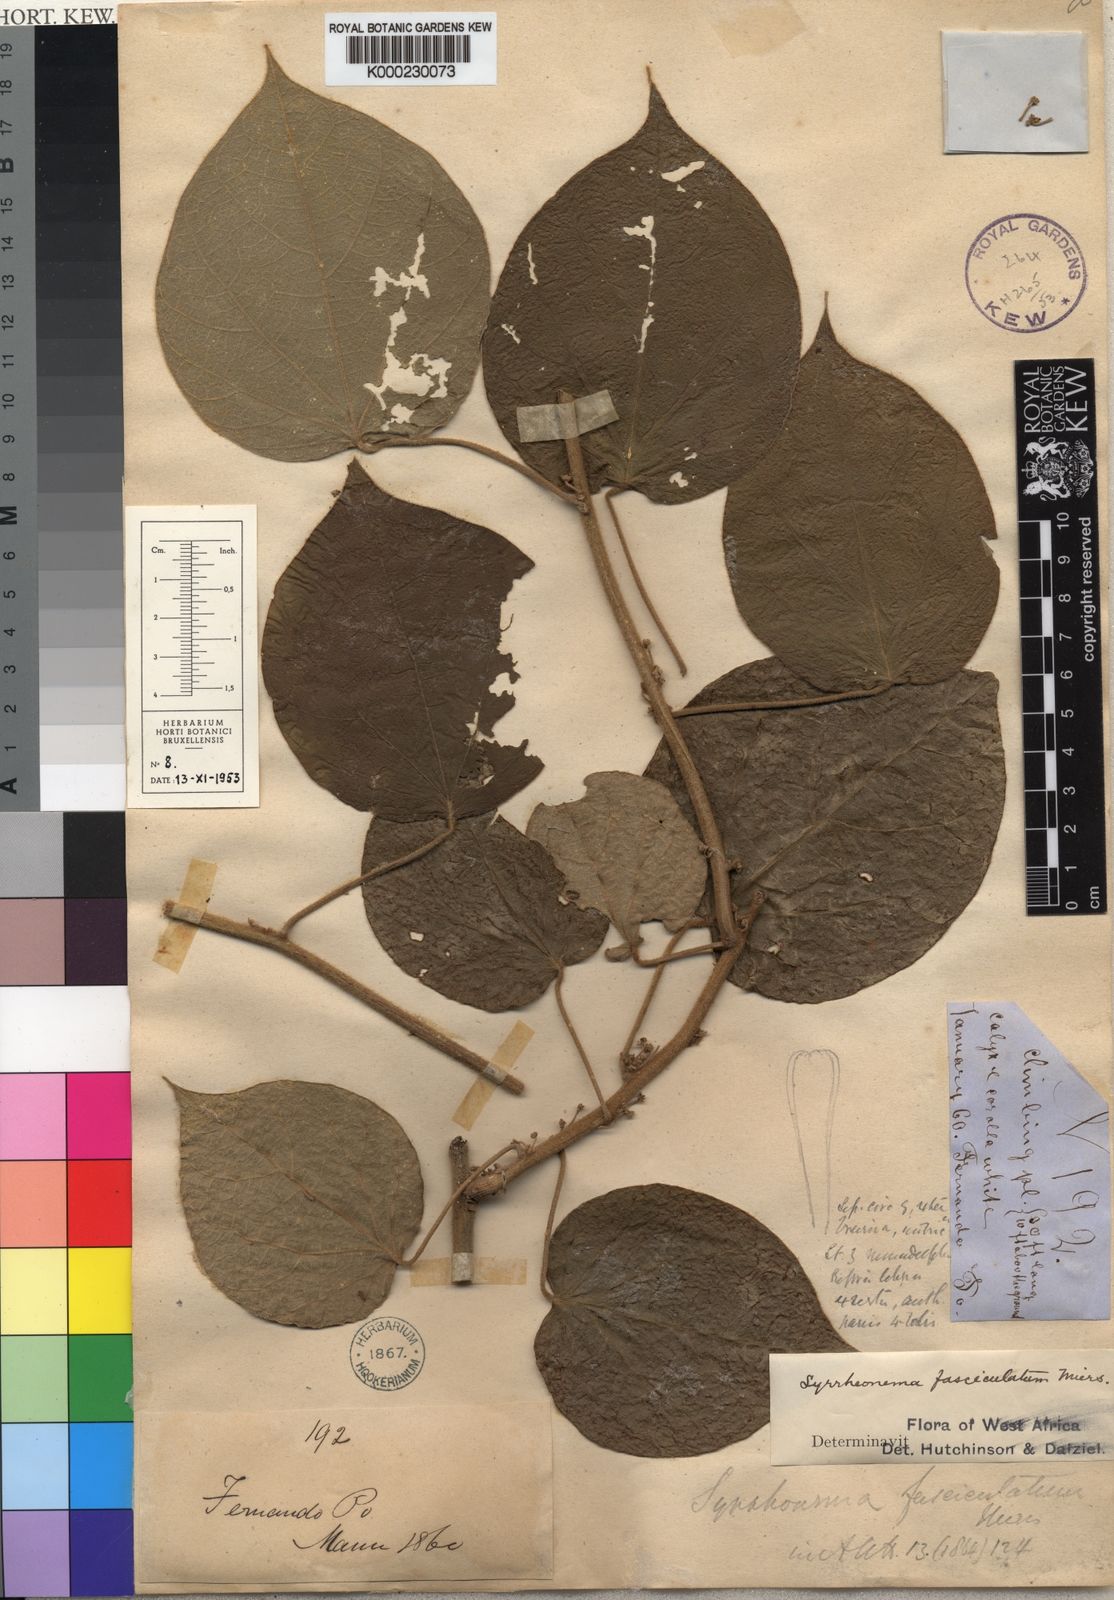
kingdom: Plantae
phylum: Tracheophyta
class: Magnoliopsida
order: Ranunculales
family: Menispermaceae
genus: Syrrheonema
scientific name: Syrrheonema fasciculatum
